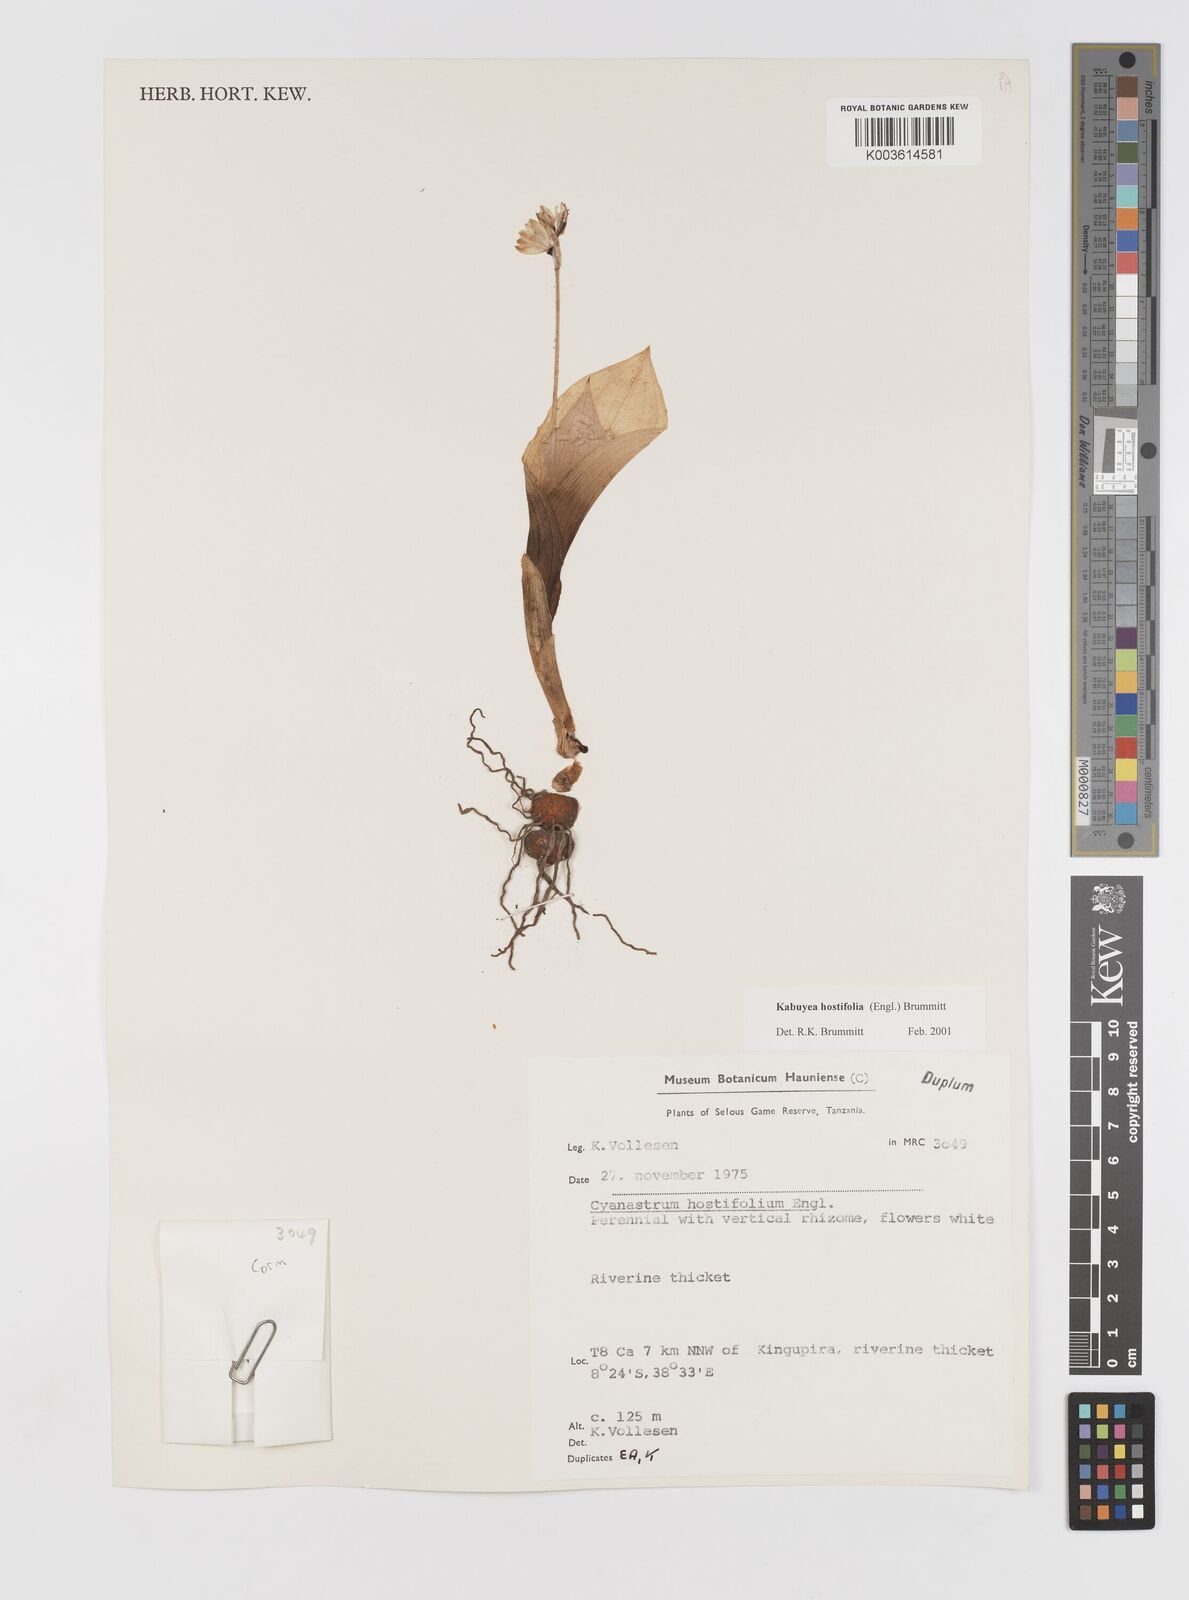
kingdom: Plantae
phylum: Tracheophyta
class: Liliopsida
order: Asparagales
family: Tecophilaeaceae
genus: Kabuyea
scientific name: Kabuyea hostifolia
